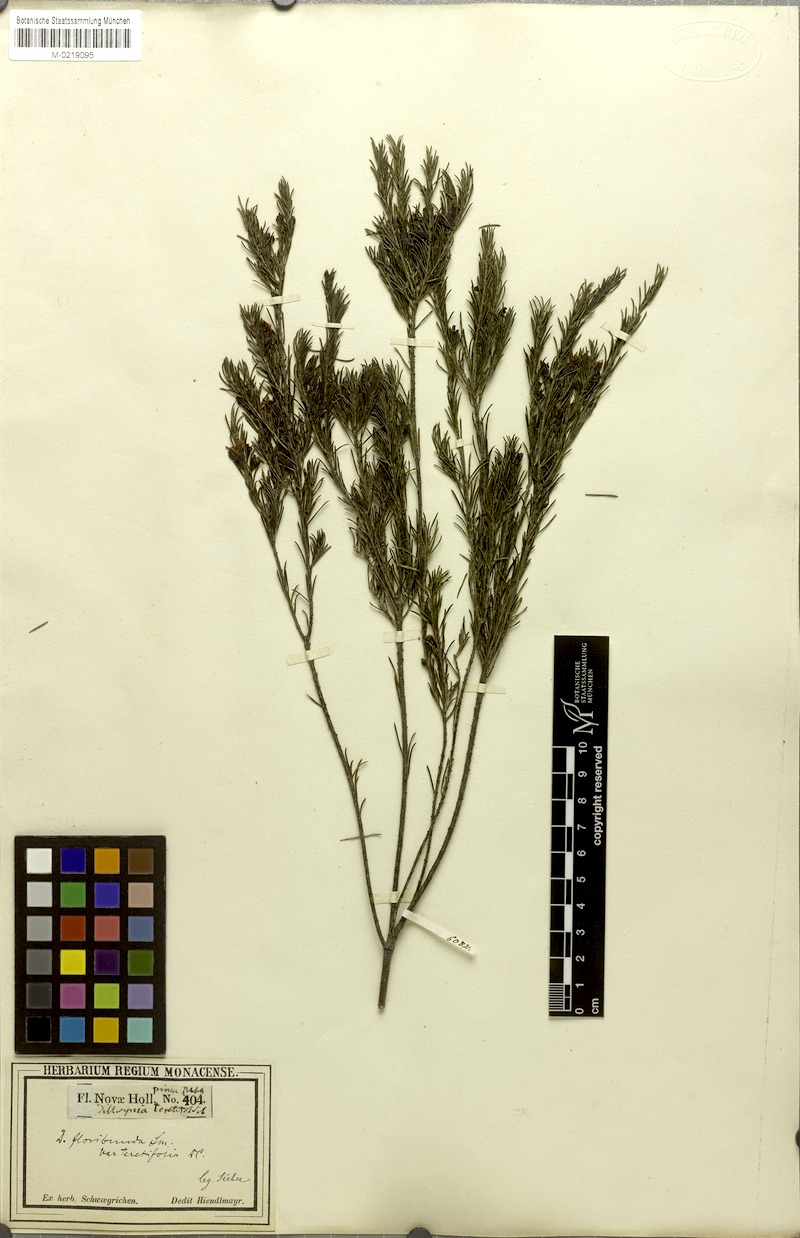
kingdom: Plantae
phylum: Tracheophyta
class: Magnoliopsida
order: Fabales
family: Fabaceae
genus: Dillwynia
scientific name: Dillwynia floribunda
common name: Eggs-and-bacon
